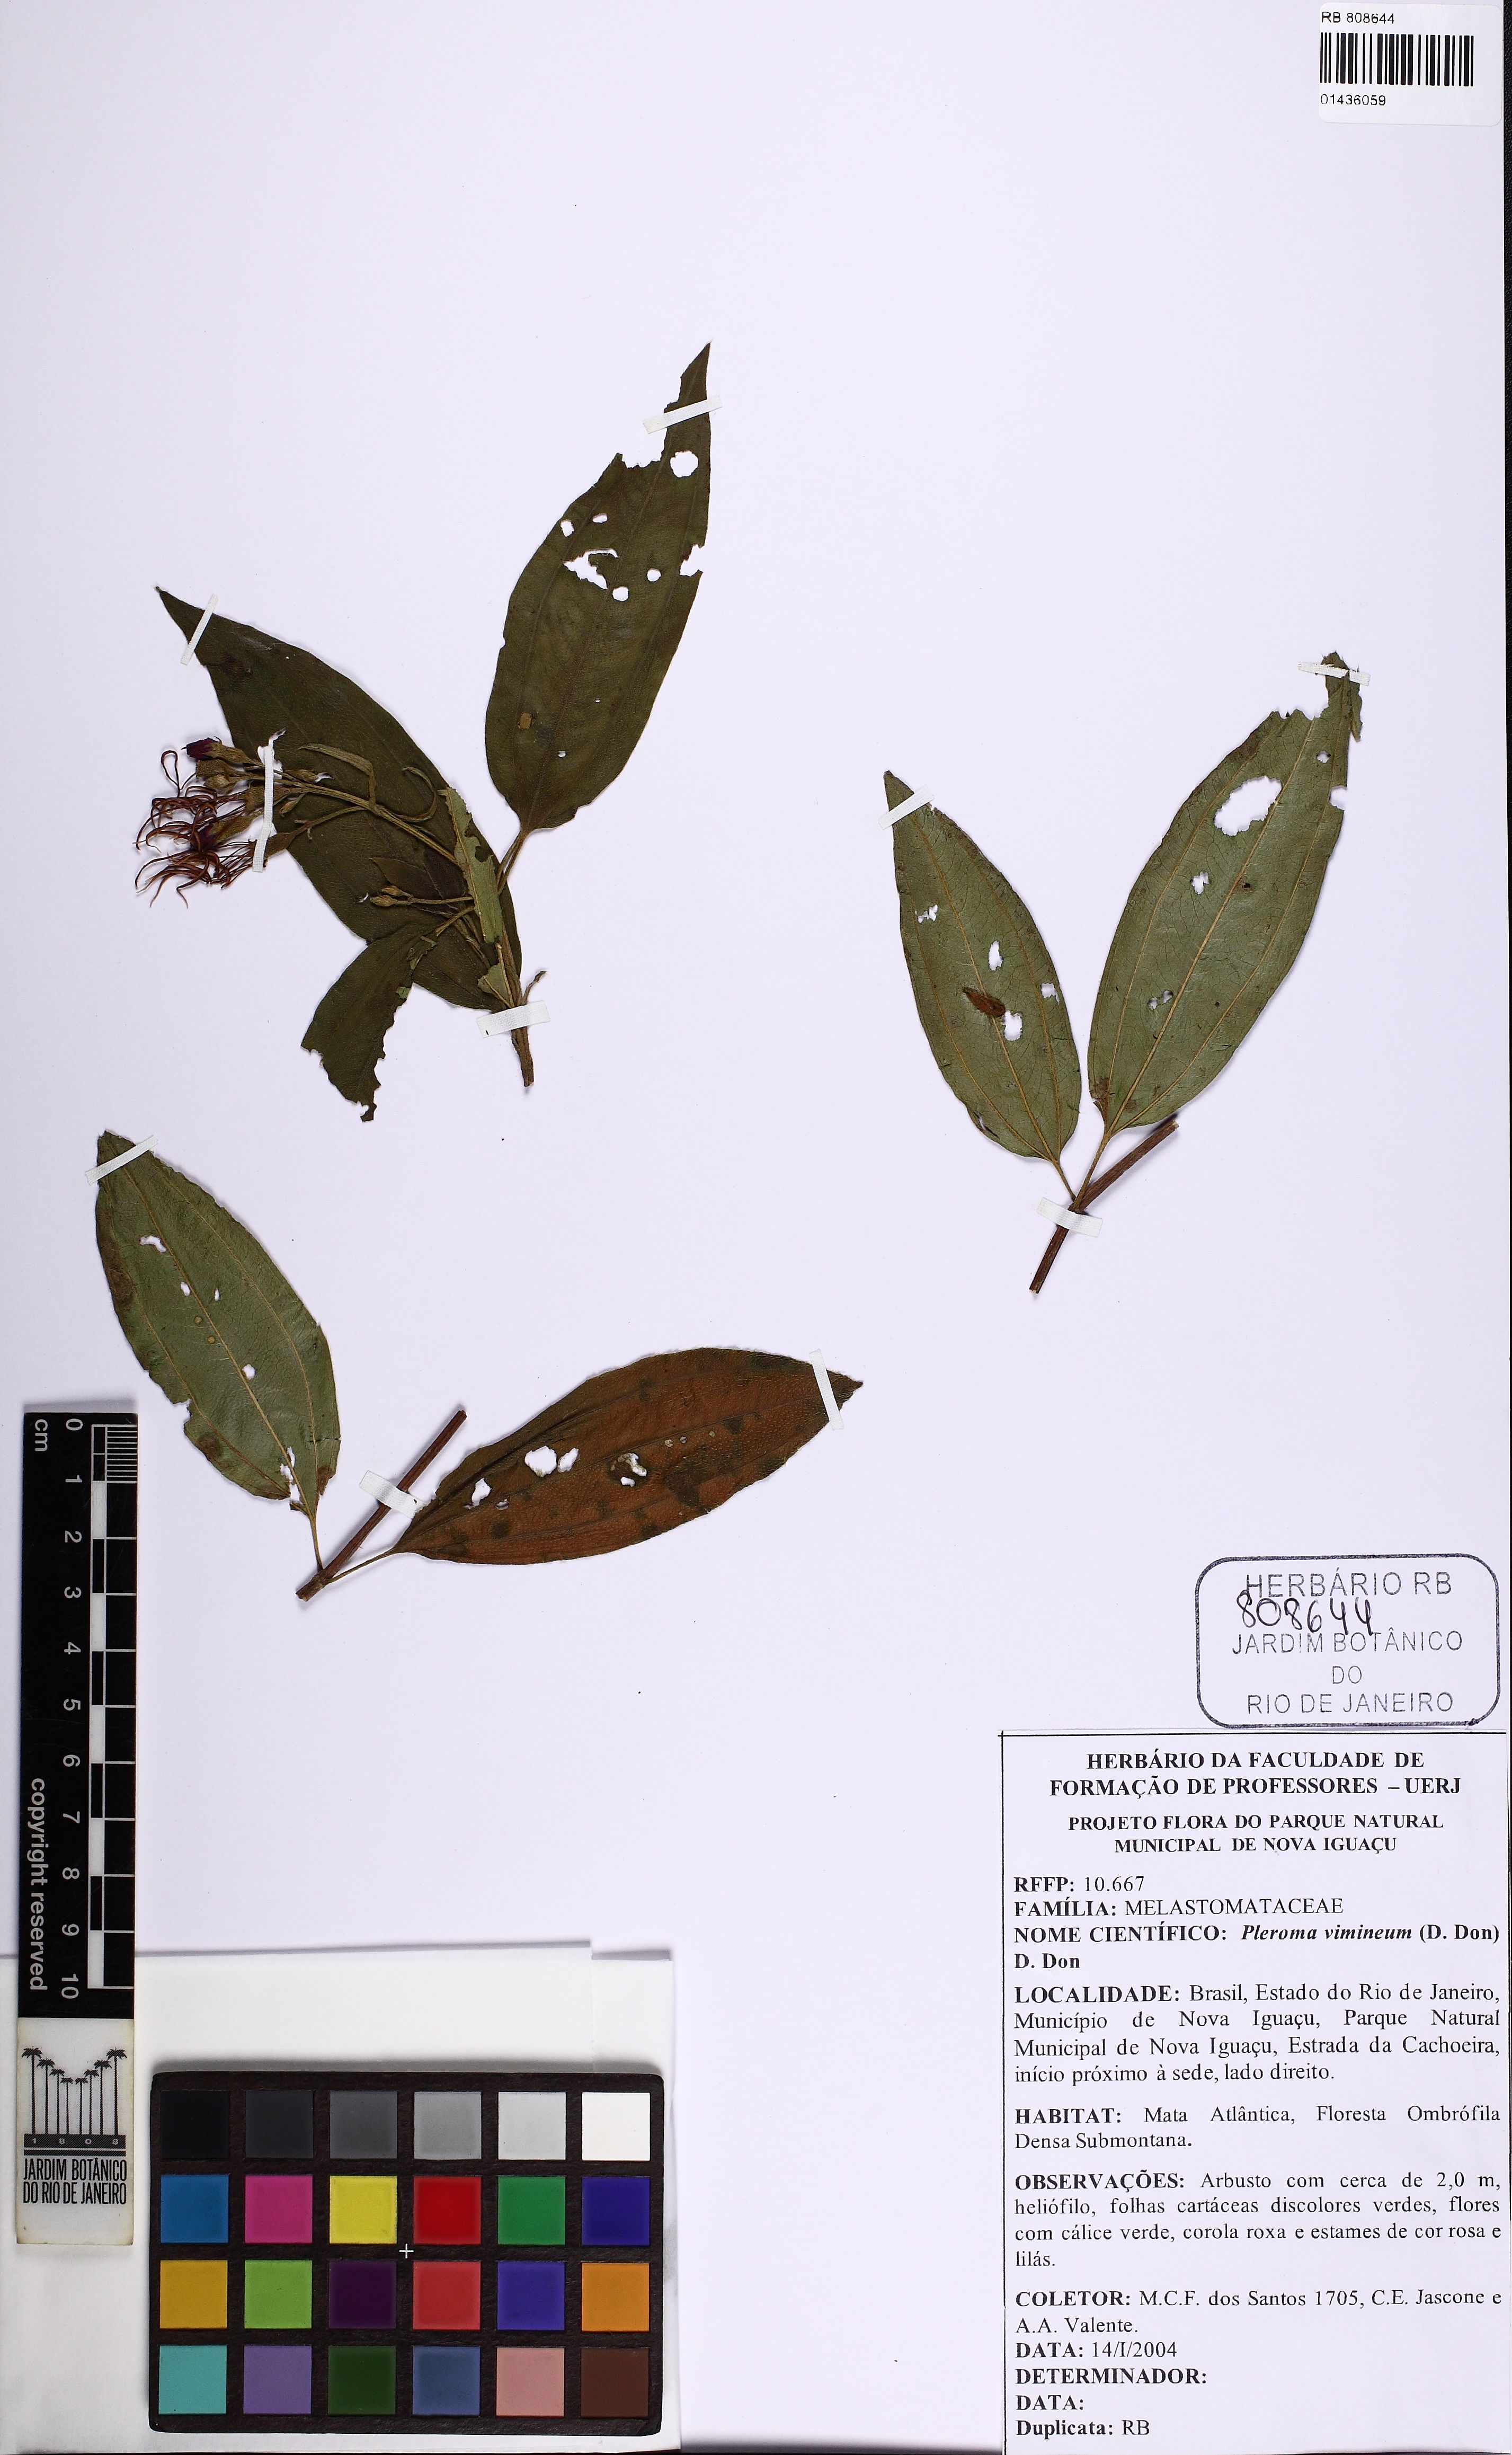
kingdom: Plantae
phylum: Tracheophyta
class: Magnoliopsida
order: Myrtales
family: Melastomataceae
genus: Pleroma
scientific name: Pleroma vimineum
